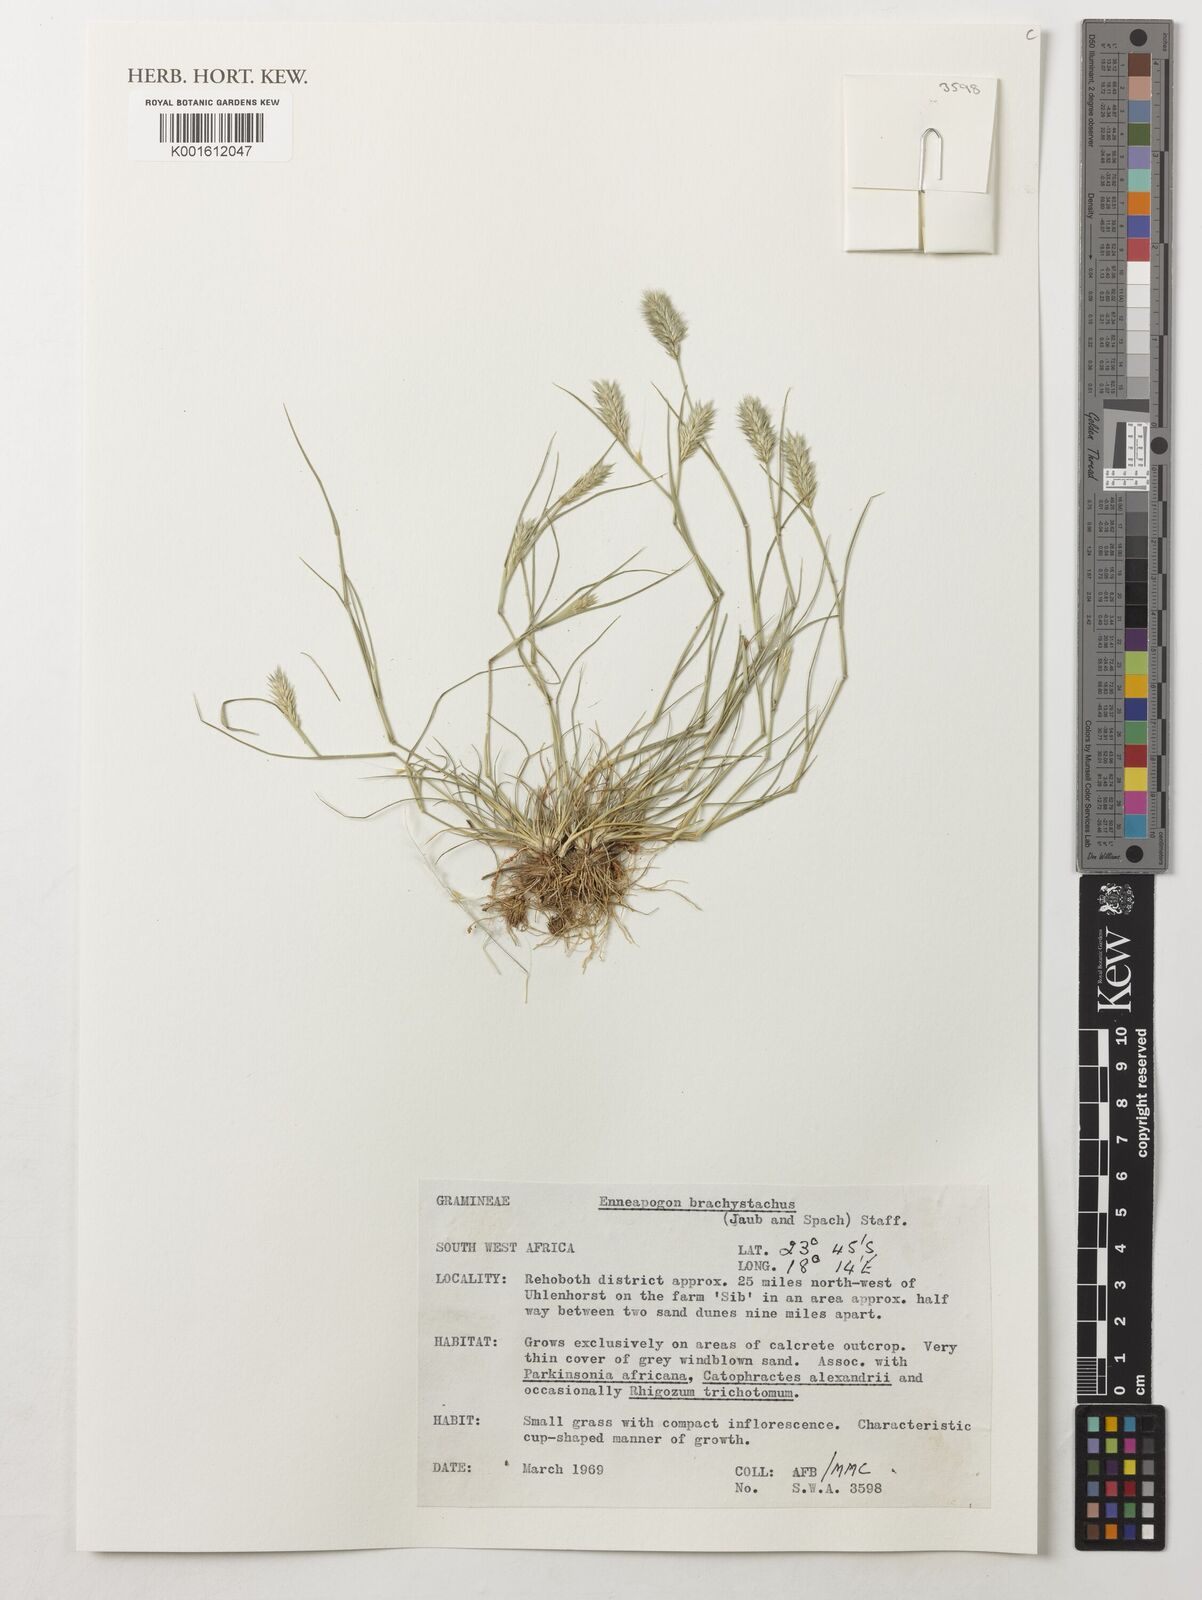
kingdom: Plantae
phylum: Tracheophyta
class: Liliopsida
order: Poales
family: Poaceae
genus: Enneapogon
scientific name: Enneapogon desvauxii
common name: Feather pappus grass
